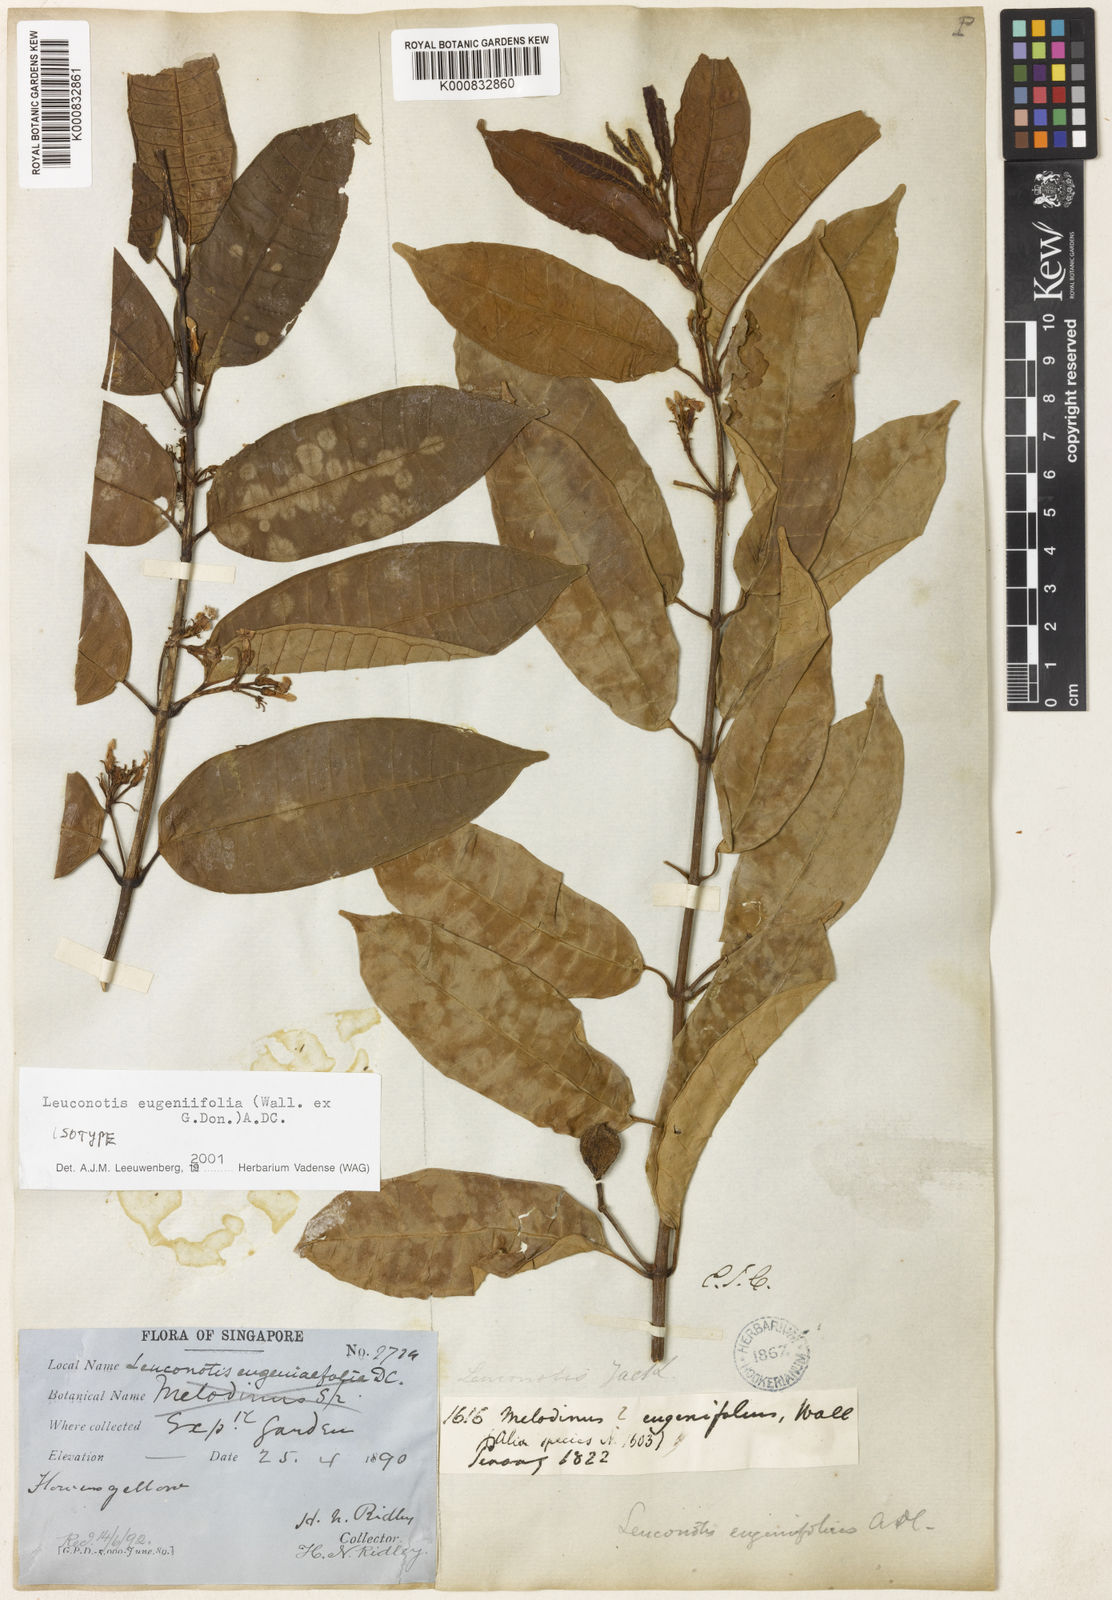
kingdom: Plantae
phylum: Tracheophyta
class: Magnoliopsida
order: Gentianales
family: Apocynaceae
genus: Leuconotis
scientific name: Leuconotis eugeniifolia
